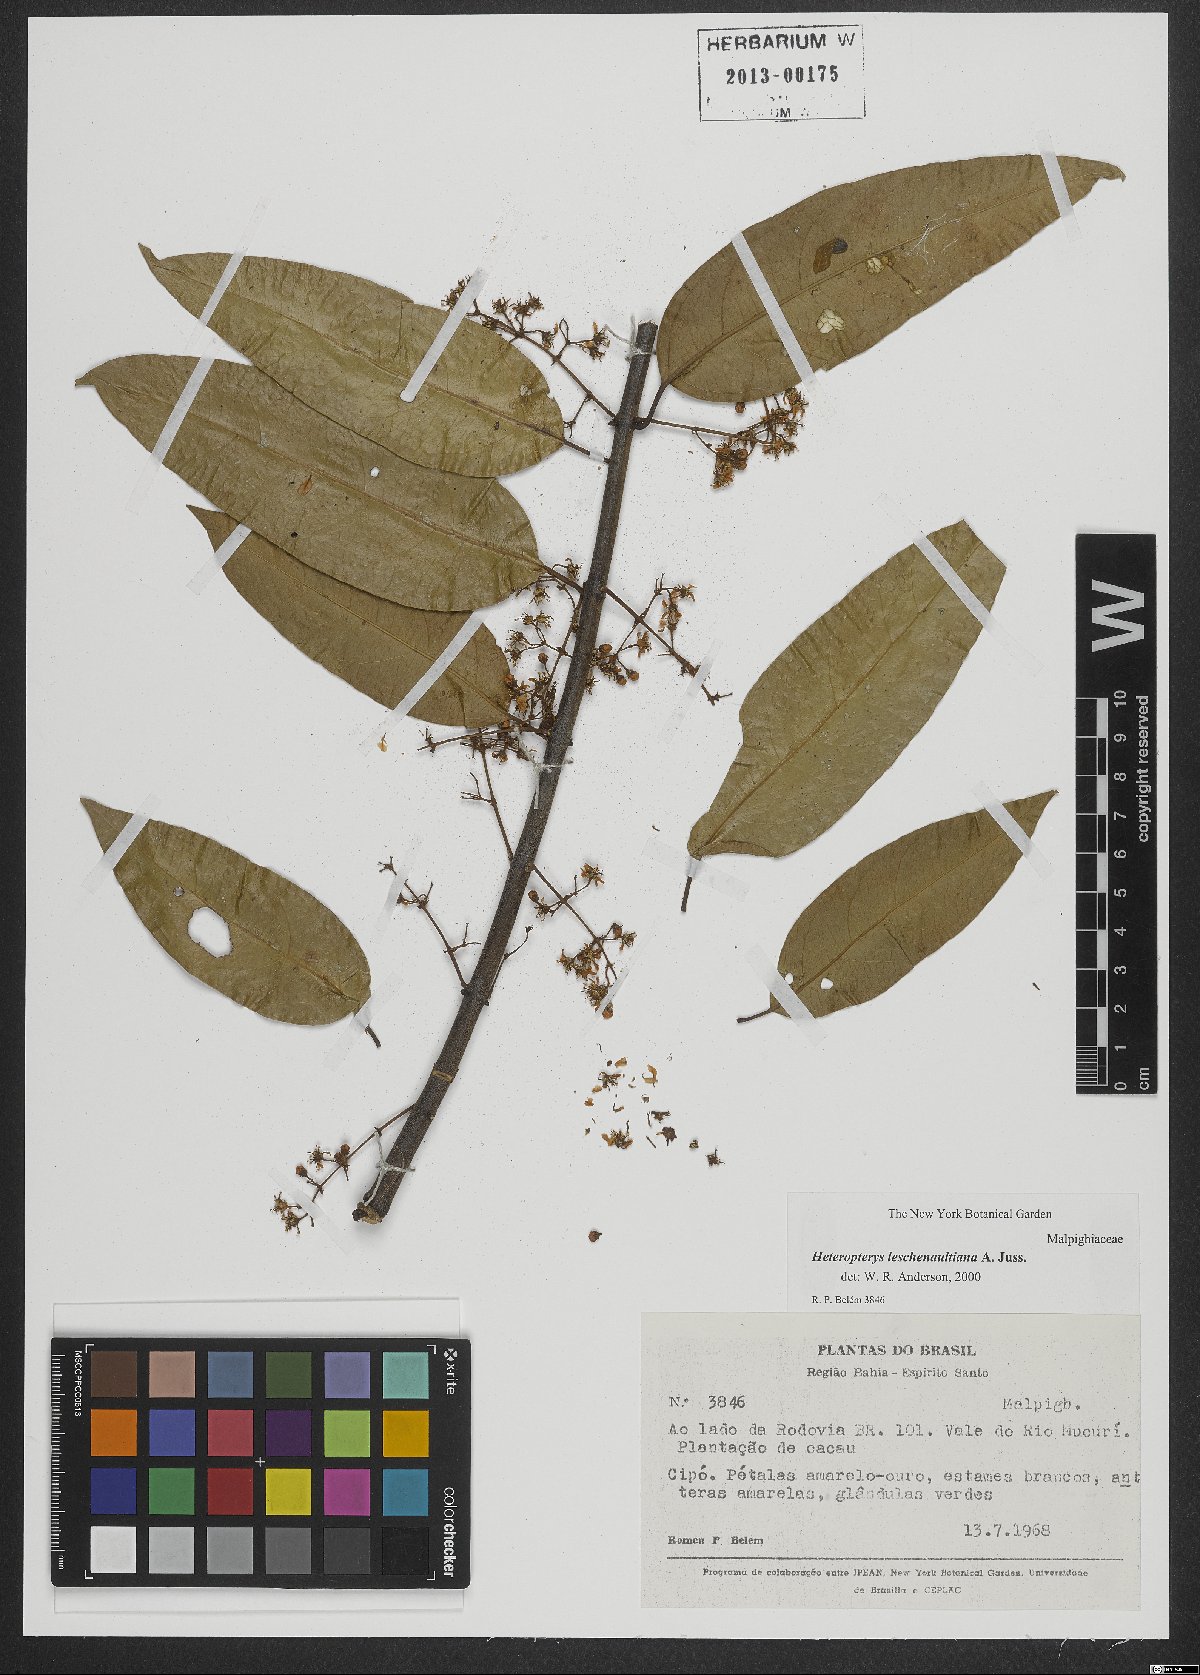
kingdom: Plantae
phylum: Tracheophyta
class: Magnoliopsida
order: Malpighiales
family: Malpighiaceae
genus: Heteropterys
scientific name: Heteropterys leschenaultiana
